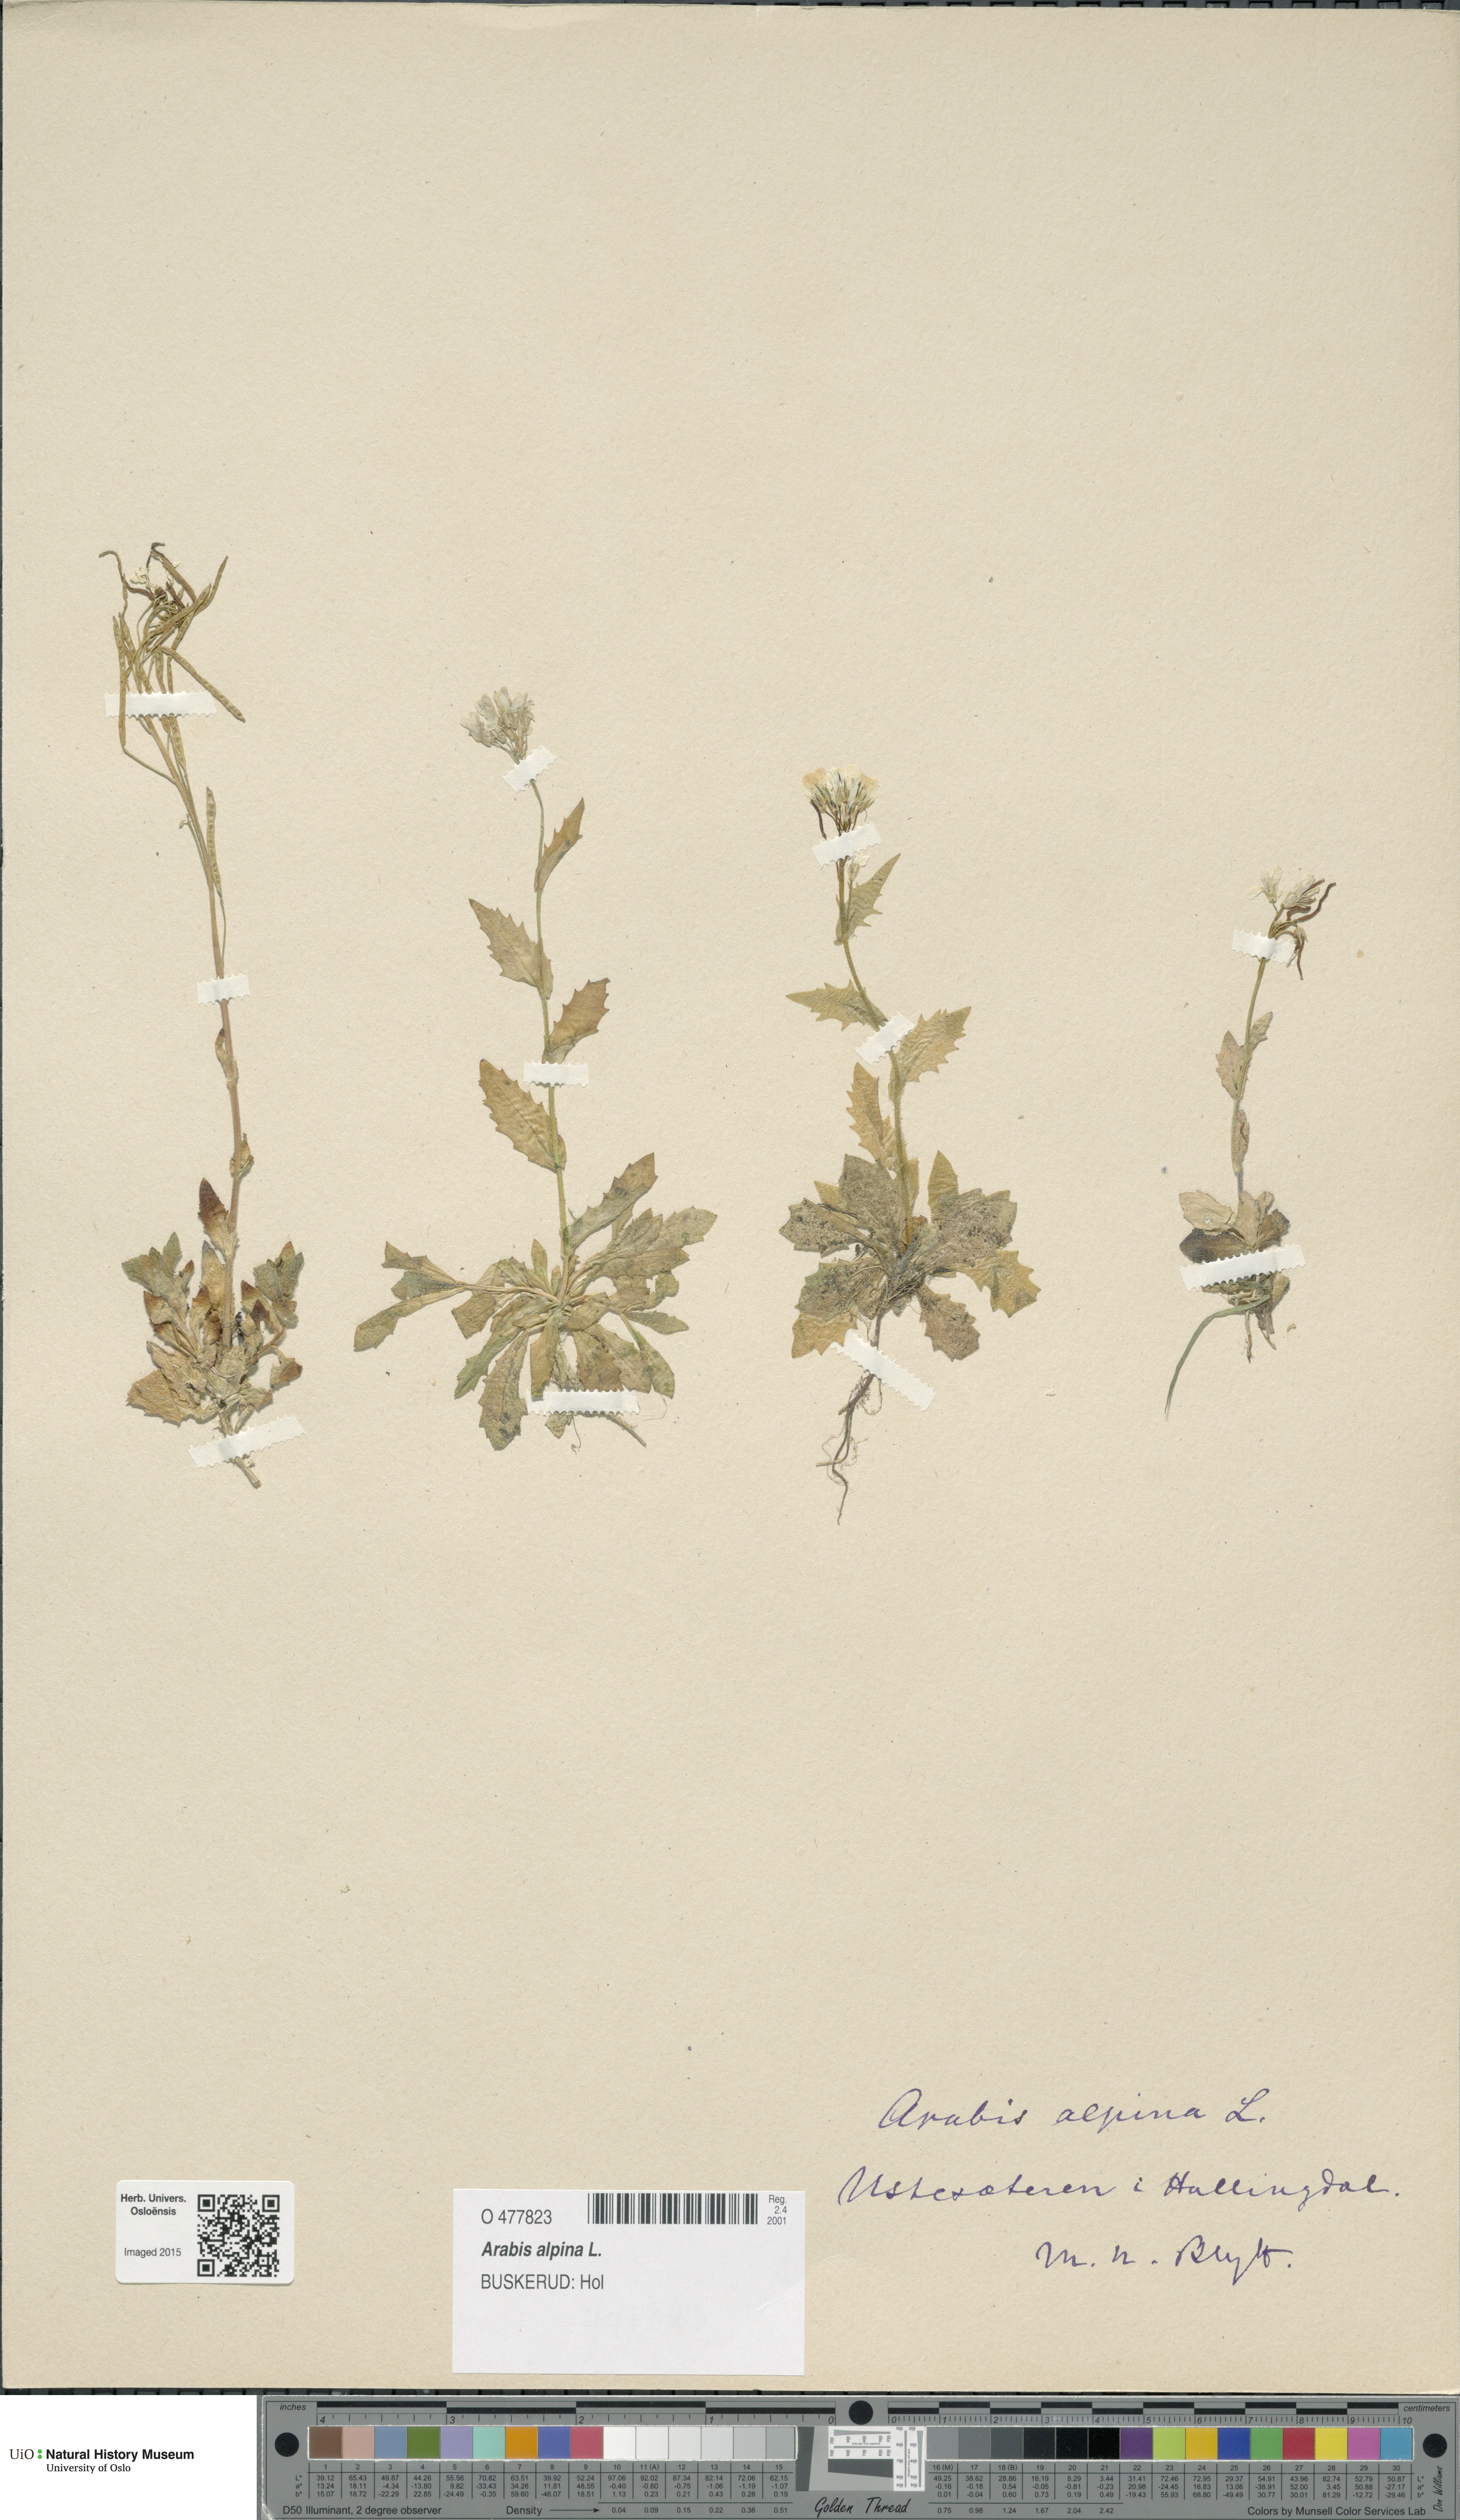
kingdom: Plantae
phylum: Tracheophyta
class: Magnoliopsida
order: Brassicales
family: Brassicaceae
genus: Arabis
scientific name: Arabis alpina
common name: Alpine rock-cress
